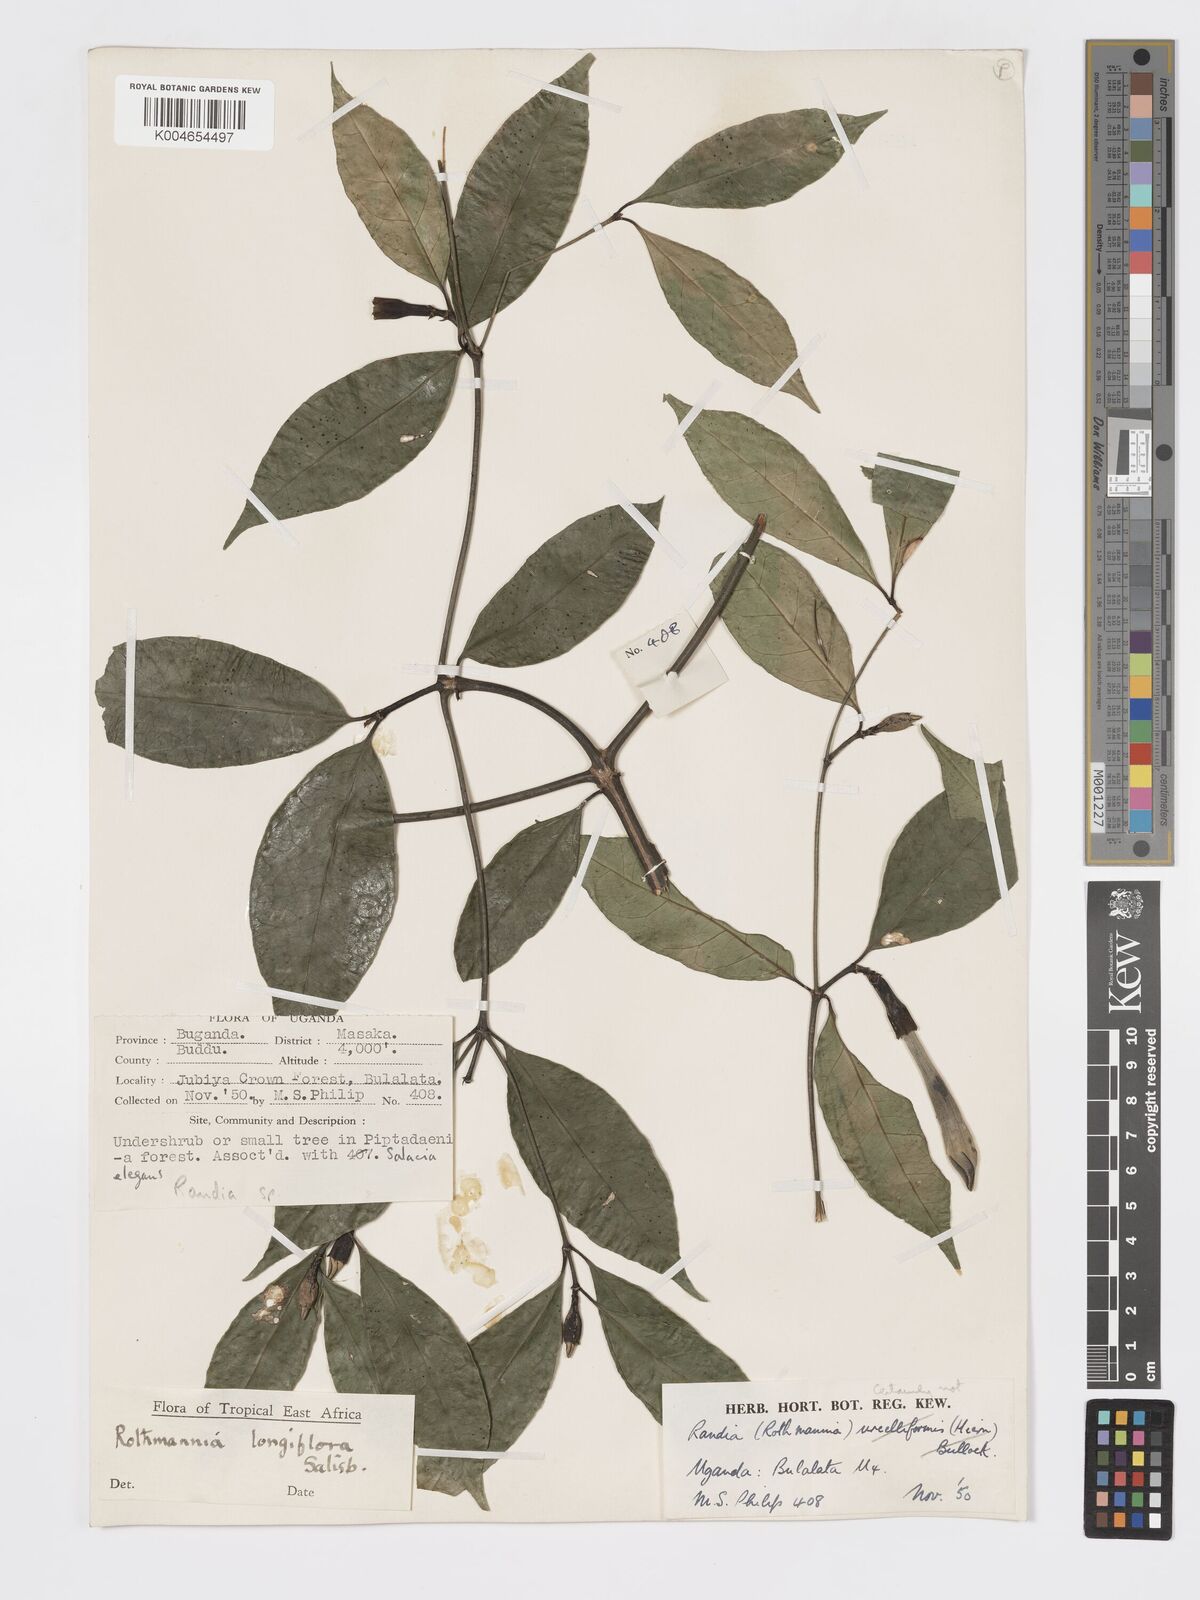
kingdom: Plantae
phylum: Tracheophyta
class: Magnoliopsida
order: Gentianales
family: Rubiaceae
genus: Rothmannia
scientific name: Rothmannia longiflora
